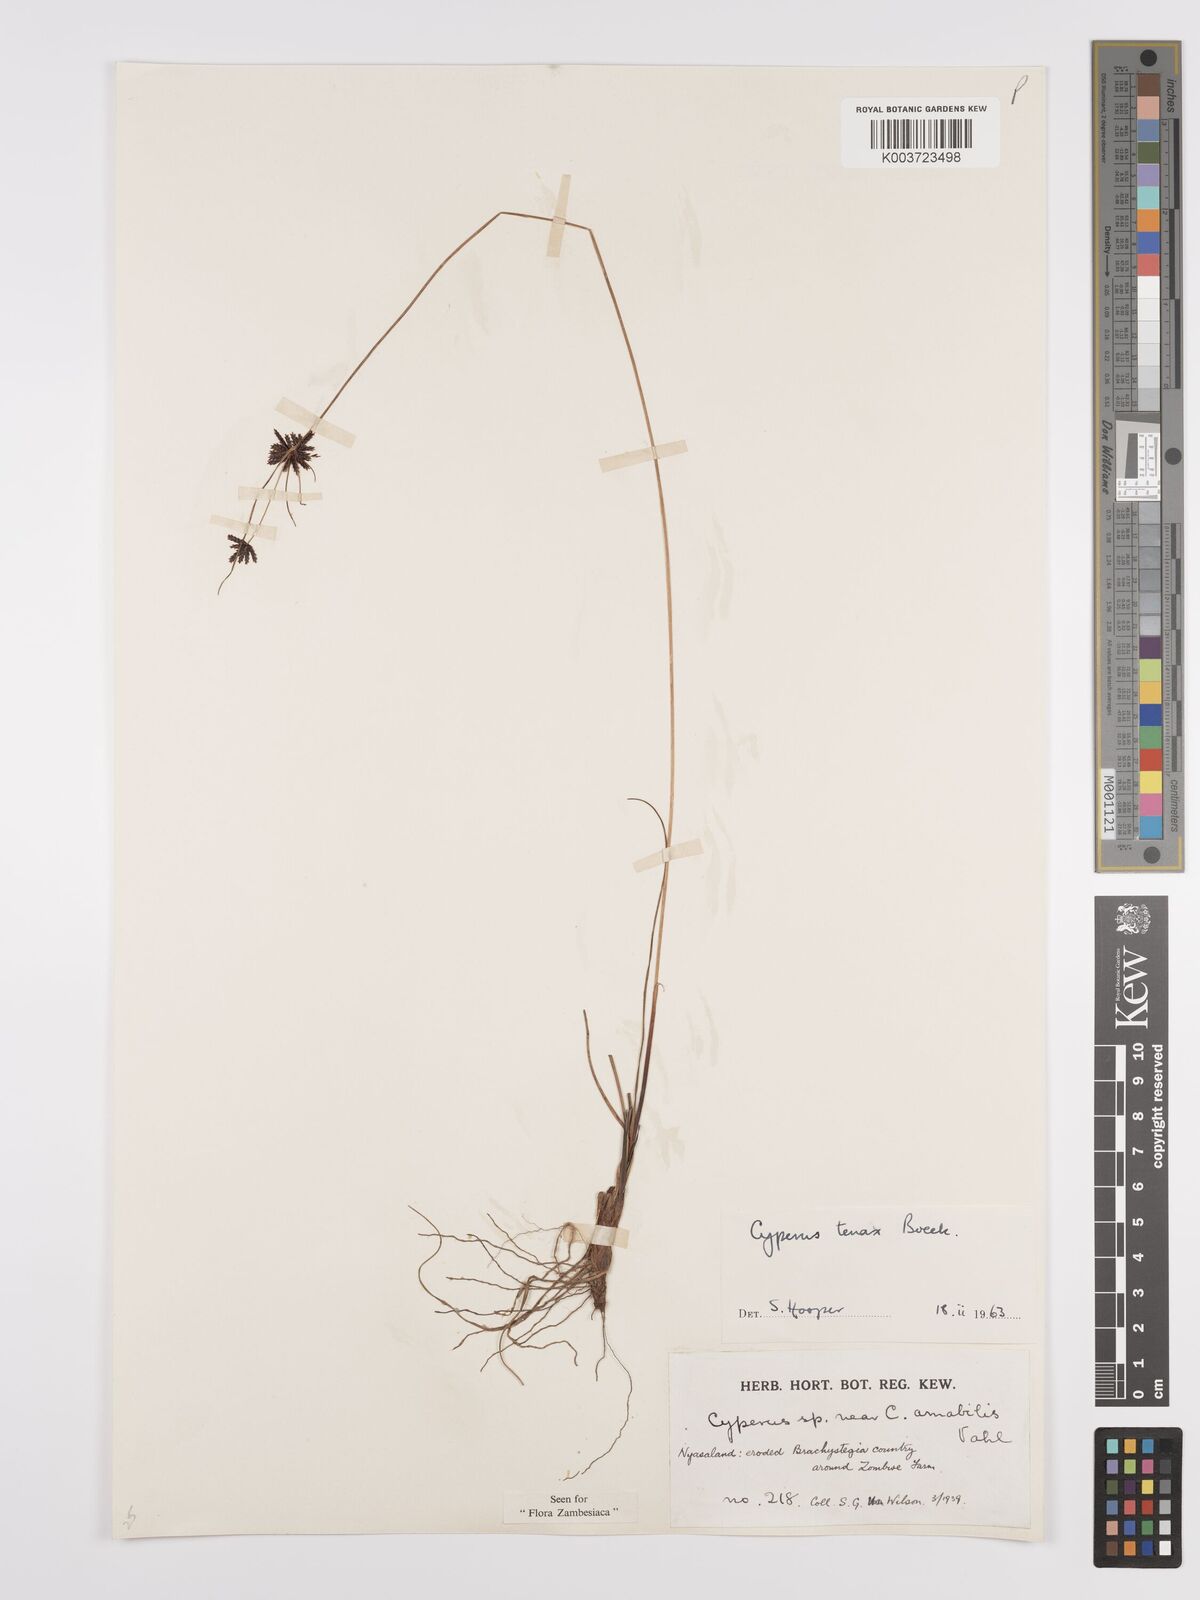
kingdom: Plantae
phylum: Tracheophyta
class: Liliopsida
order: Poales
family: Cyperaceae
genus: Cyperus
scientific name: Cyperus tenax
